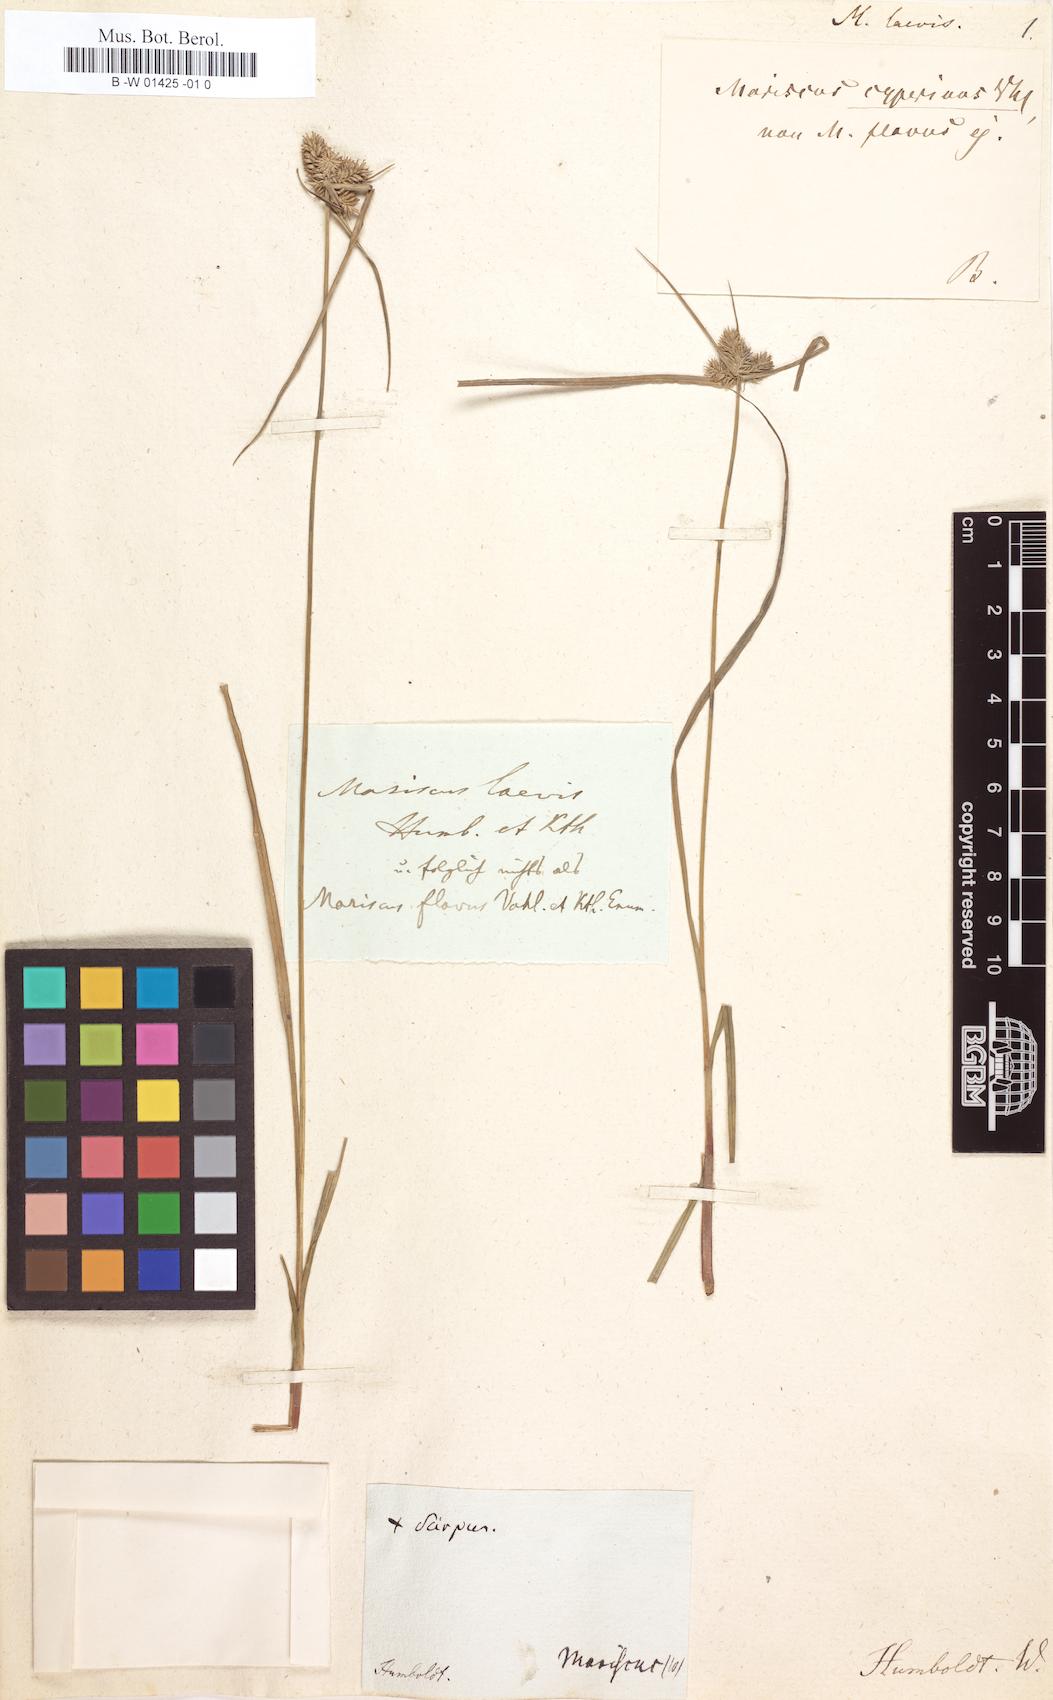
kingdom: Plantae
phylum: Tracheophyta
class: Liliopsida
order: Poales
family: Cyperaceae
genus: Cyperus
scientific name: Cyperus aggregatus
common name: Inflatedscale flatsedge
